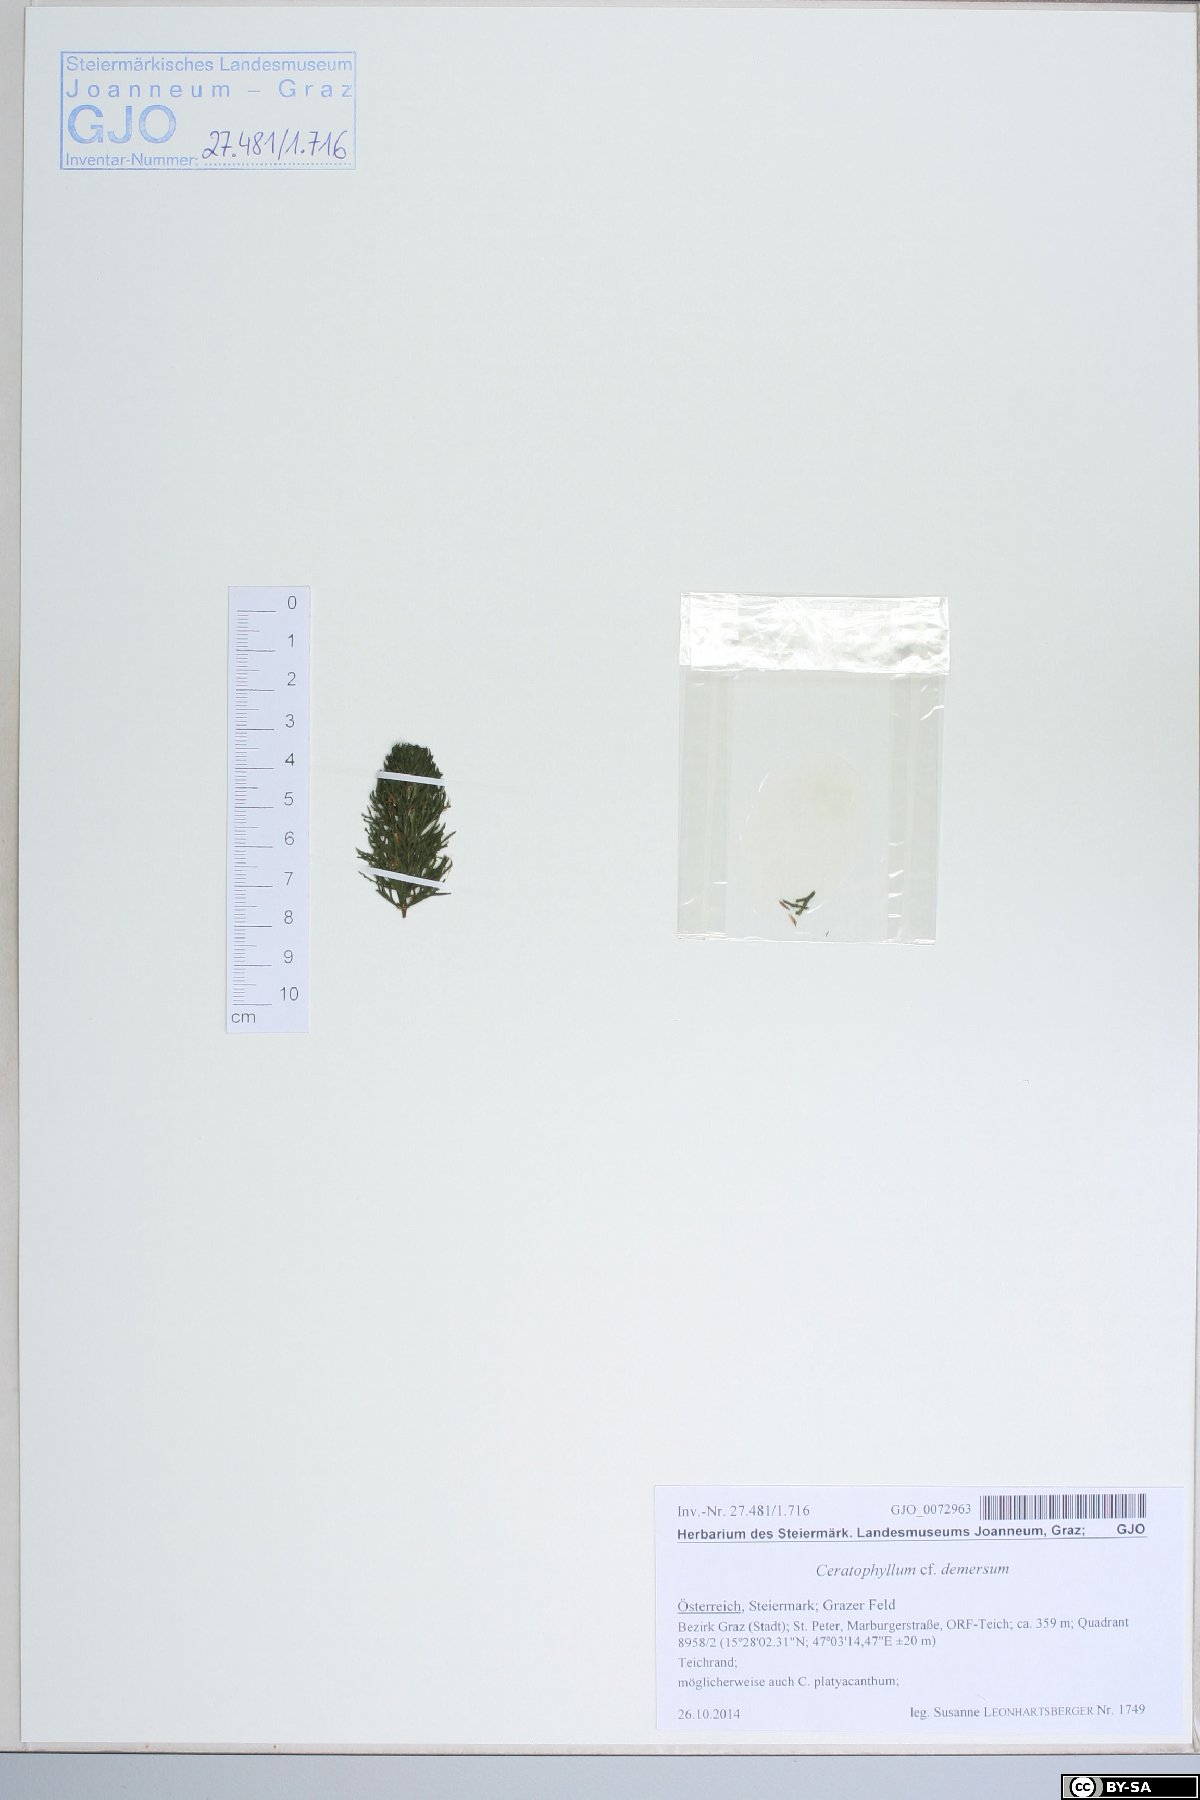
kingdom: Plantae
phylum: Tracheophyta
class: Magnoliopsida
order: Ceratophyllales
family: Ceratophyllaceae
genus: Ceratophyllum
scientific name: Ceratophyllum demersum
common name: Rigid hornwort
